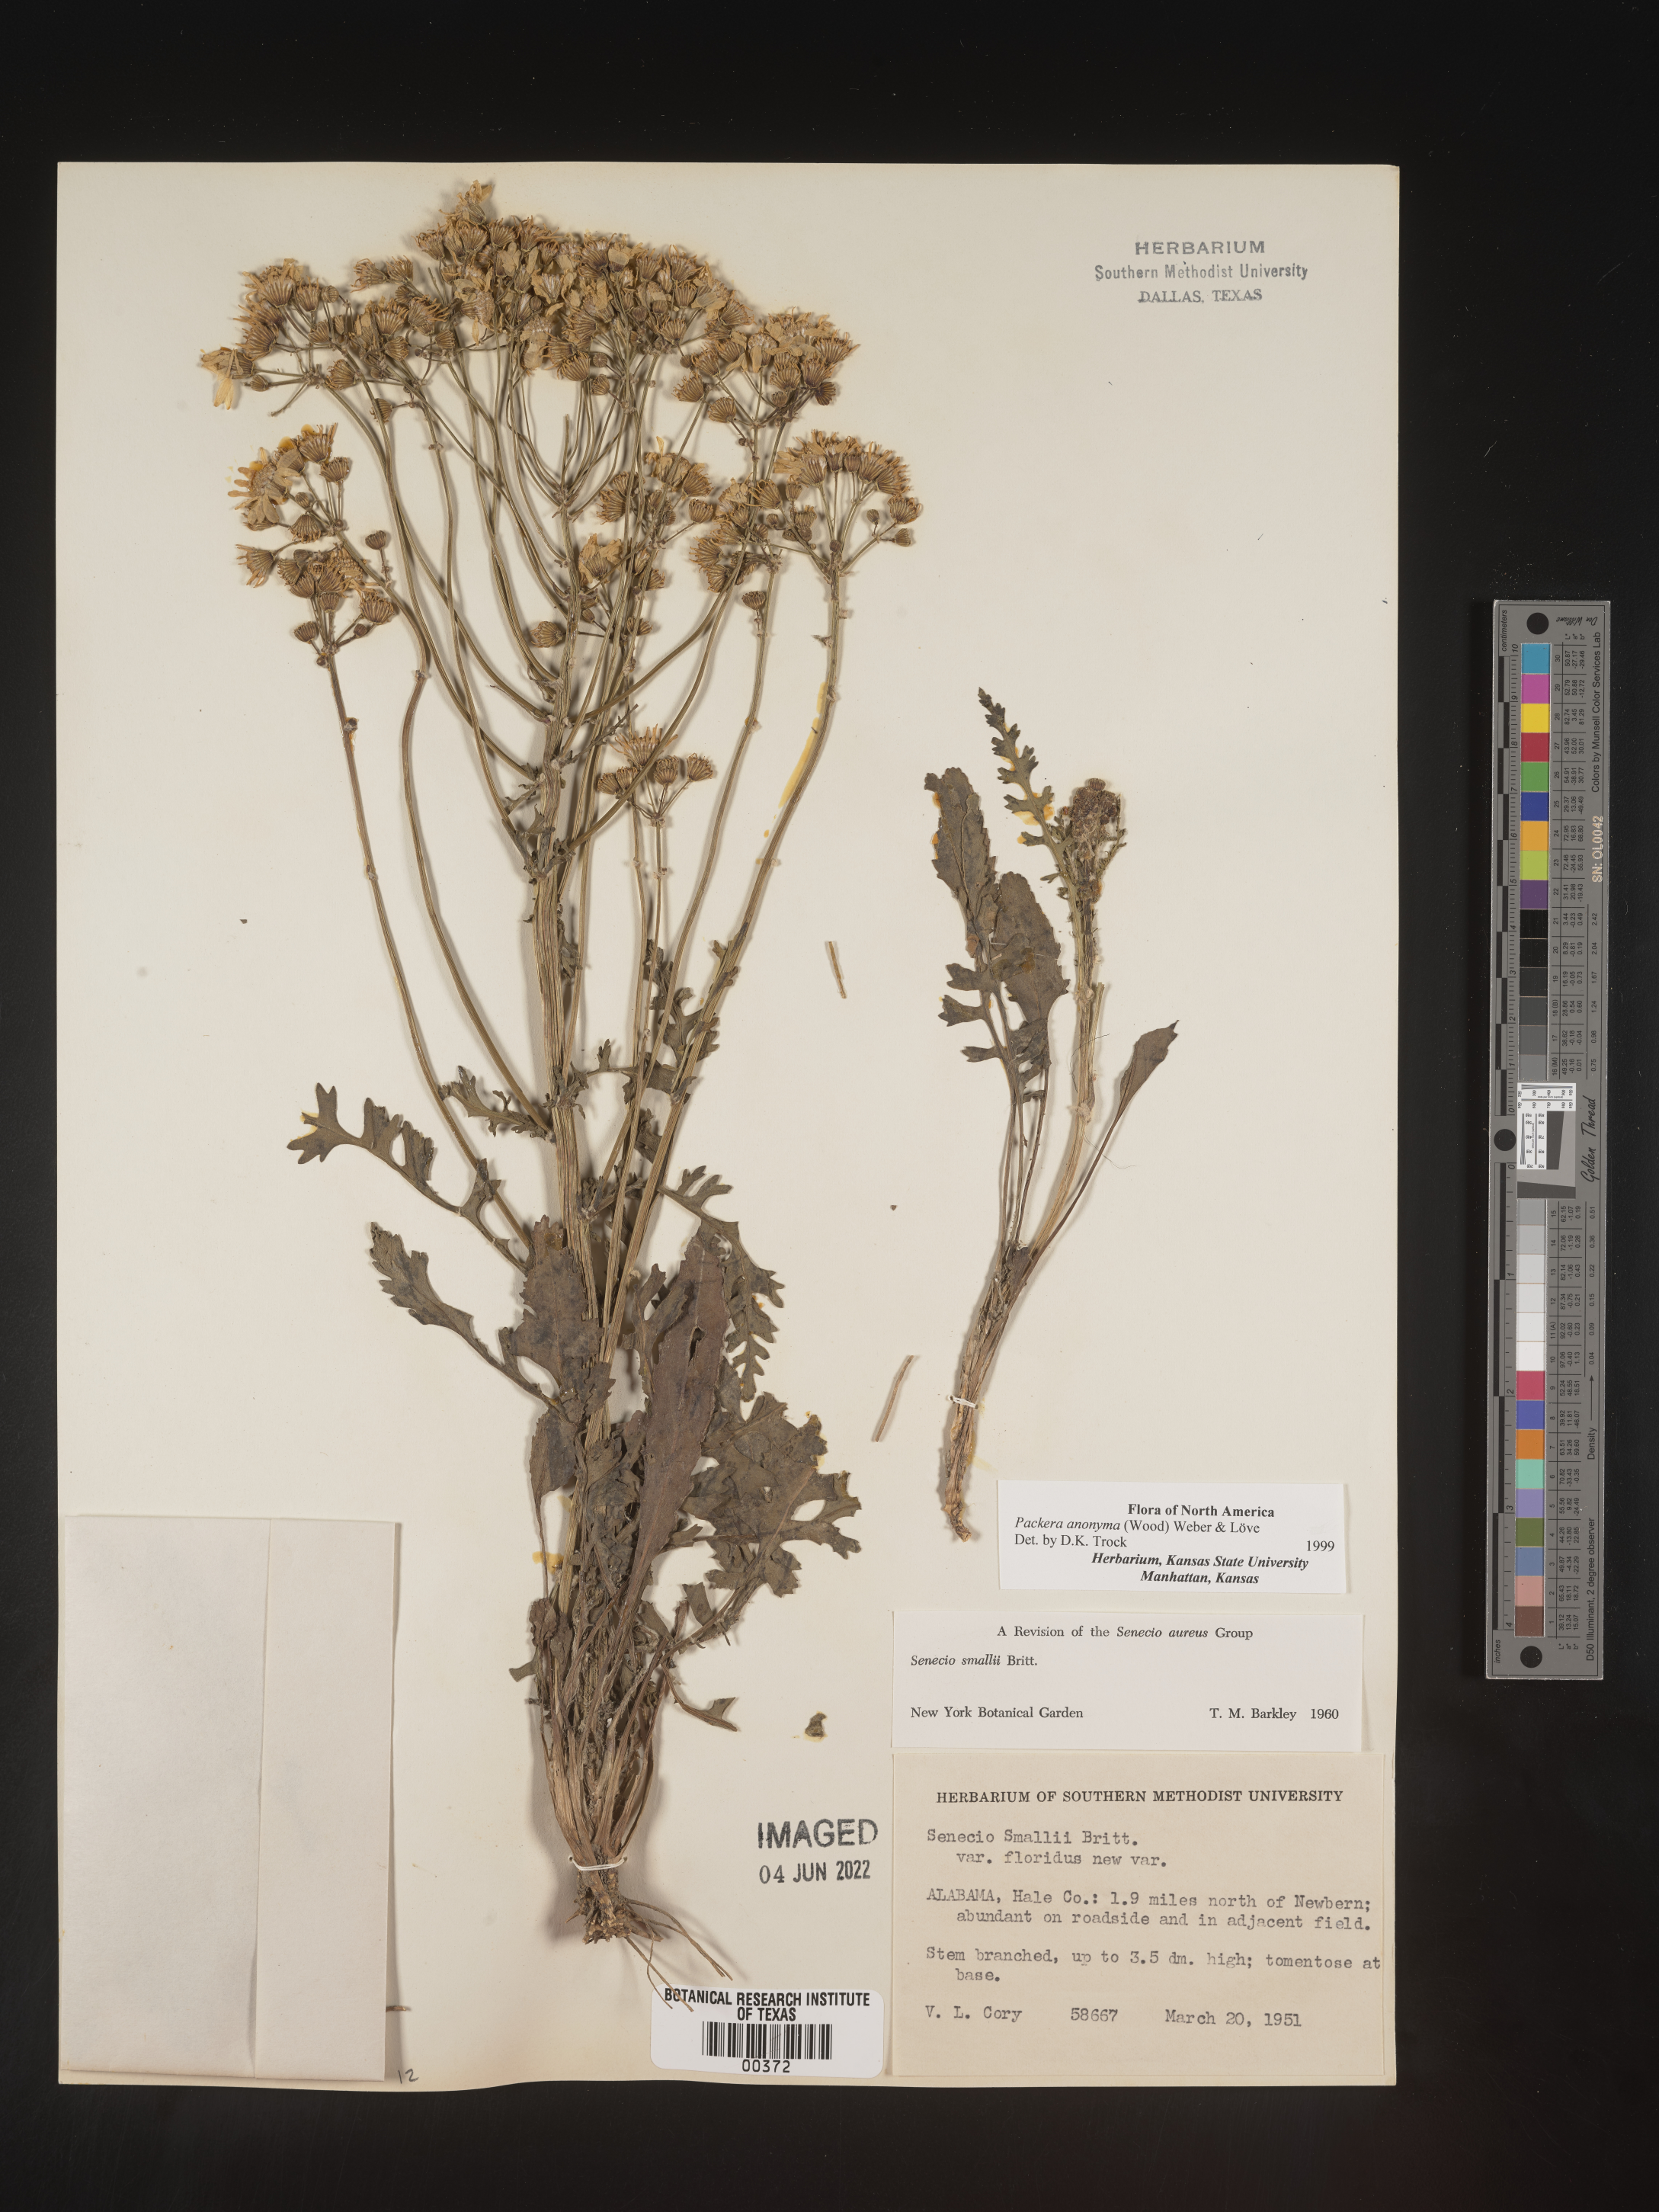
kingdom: Plantae
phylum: Tracheophyta
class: Magnoliopsida
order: Asterales
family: Asteraceae
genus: Packera
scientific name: Packera anonyma
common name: Small ragwort
